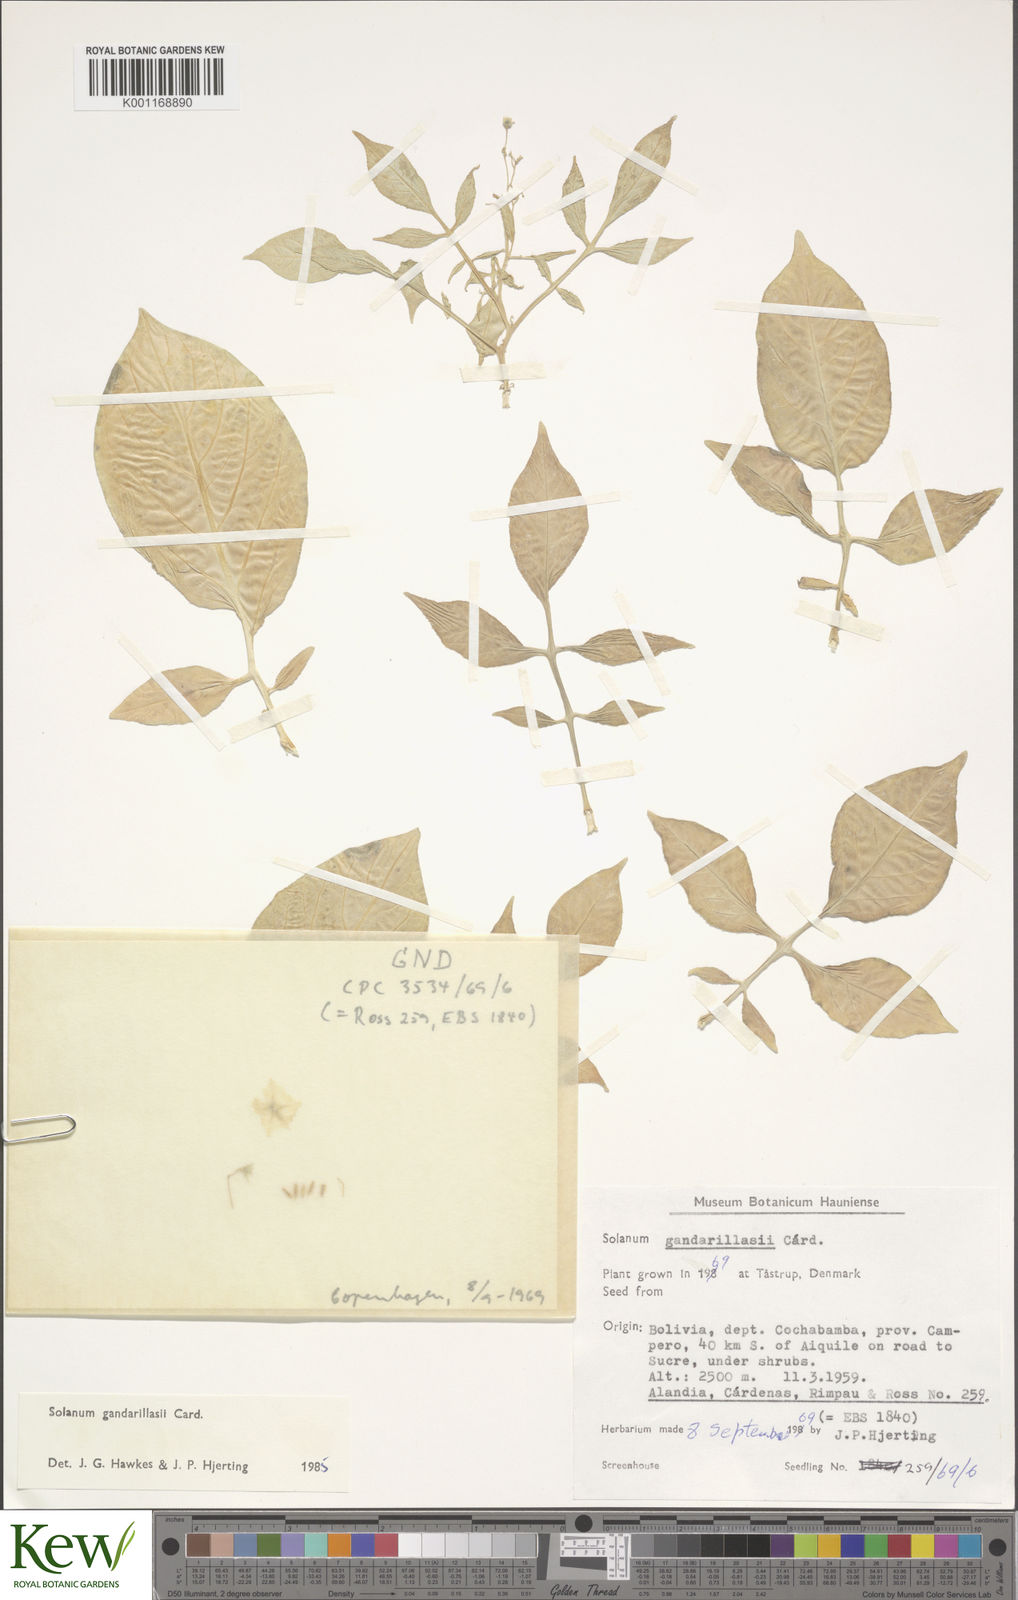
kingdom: Plantae
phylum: Tracheophyta
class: Magnoliopsida
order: Solanales
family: Solanaceae
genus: Solanum
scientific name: Solanum
